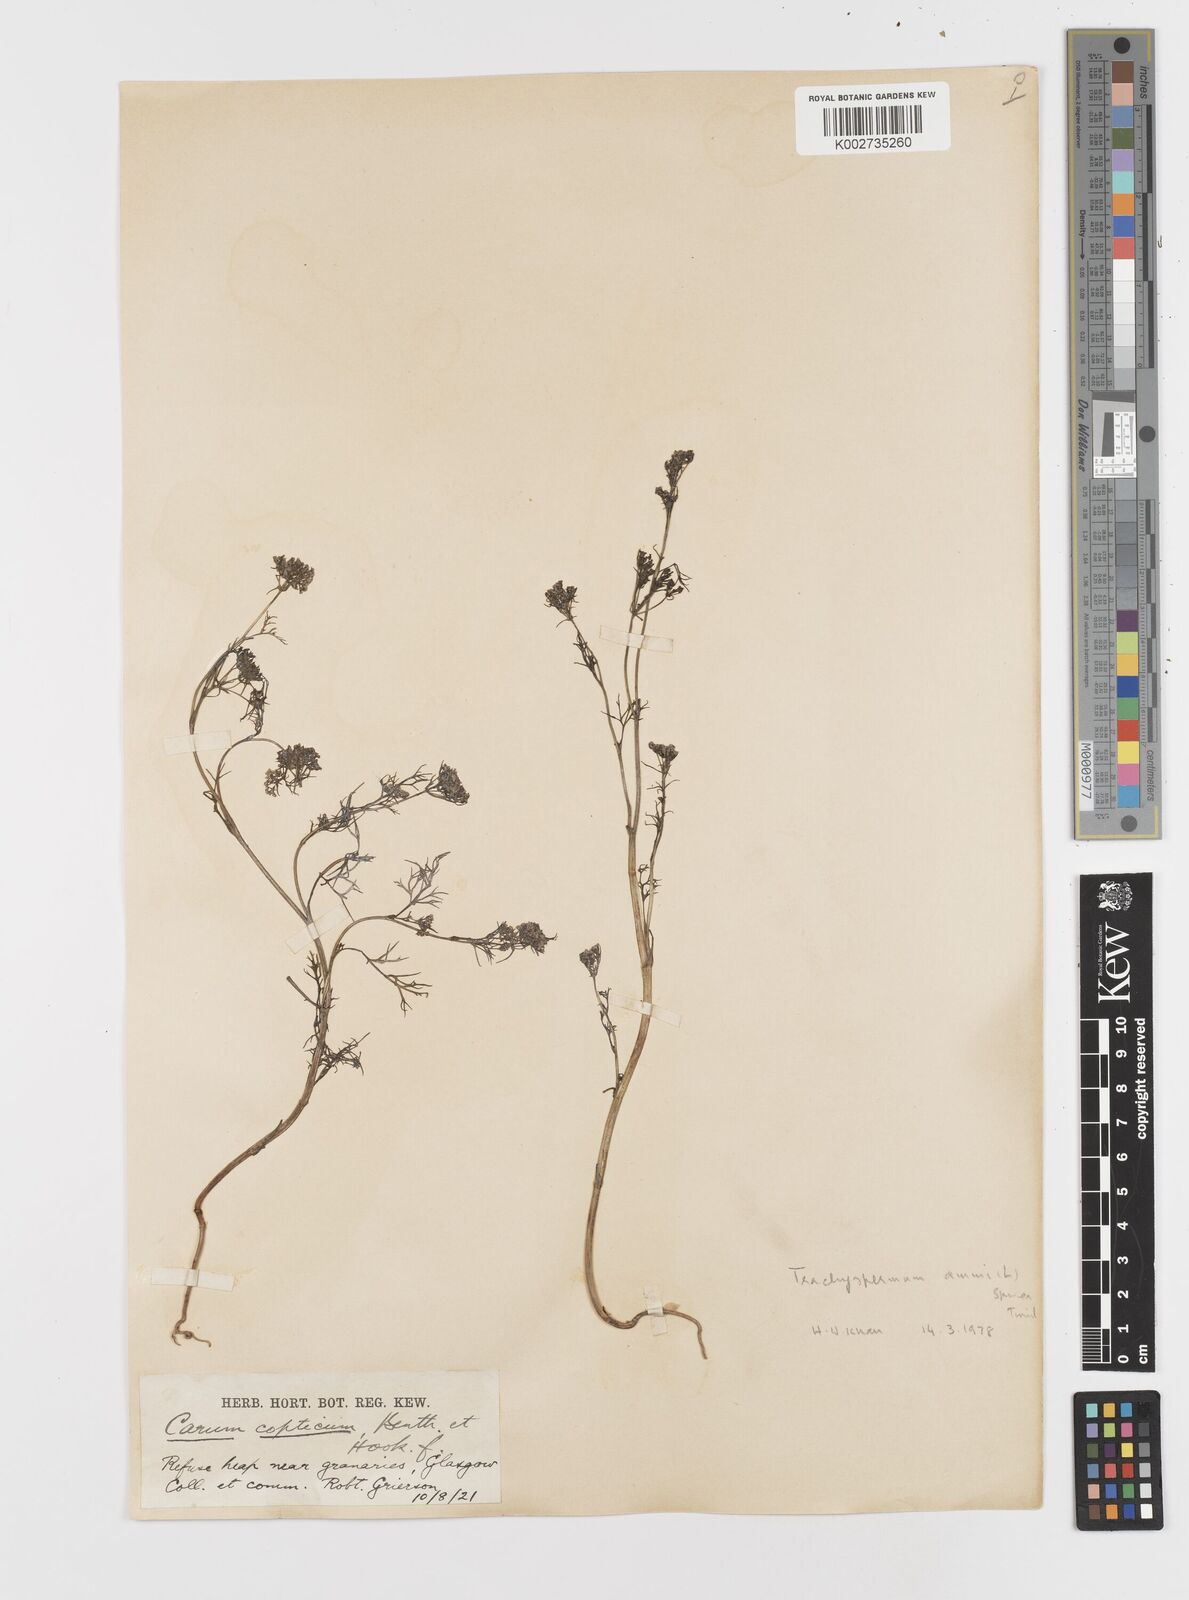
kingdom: Plantae
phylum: Tracheophyta
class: Magnoliopsida
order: Apiales
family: Apiaceae
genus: Trachyspermum
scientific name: Trachyspermum ammi
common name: Ajowan
